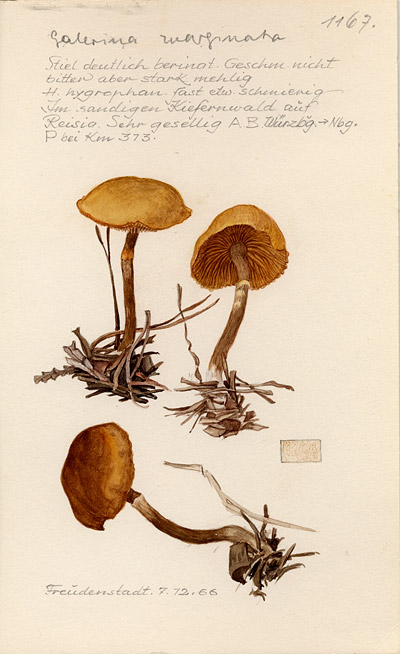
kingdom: Fungi
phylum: Basidiomycota
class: Agaricomycetes
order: Agaricales
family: Hymenogastraceae
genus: Galerina
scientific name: Galerina marginata
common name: Funeral bell
